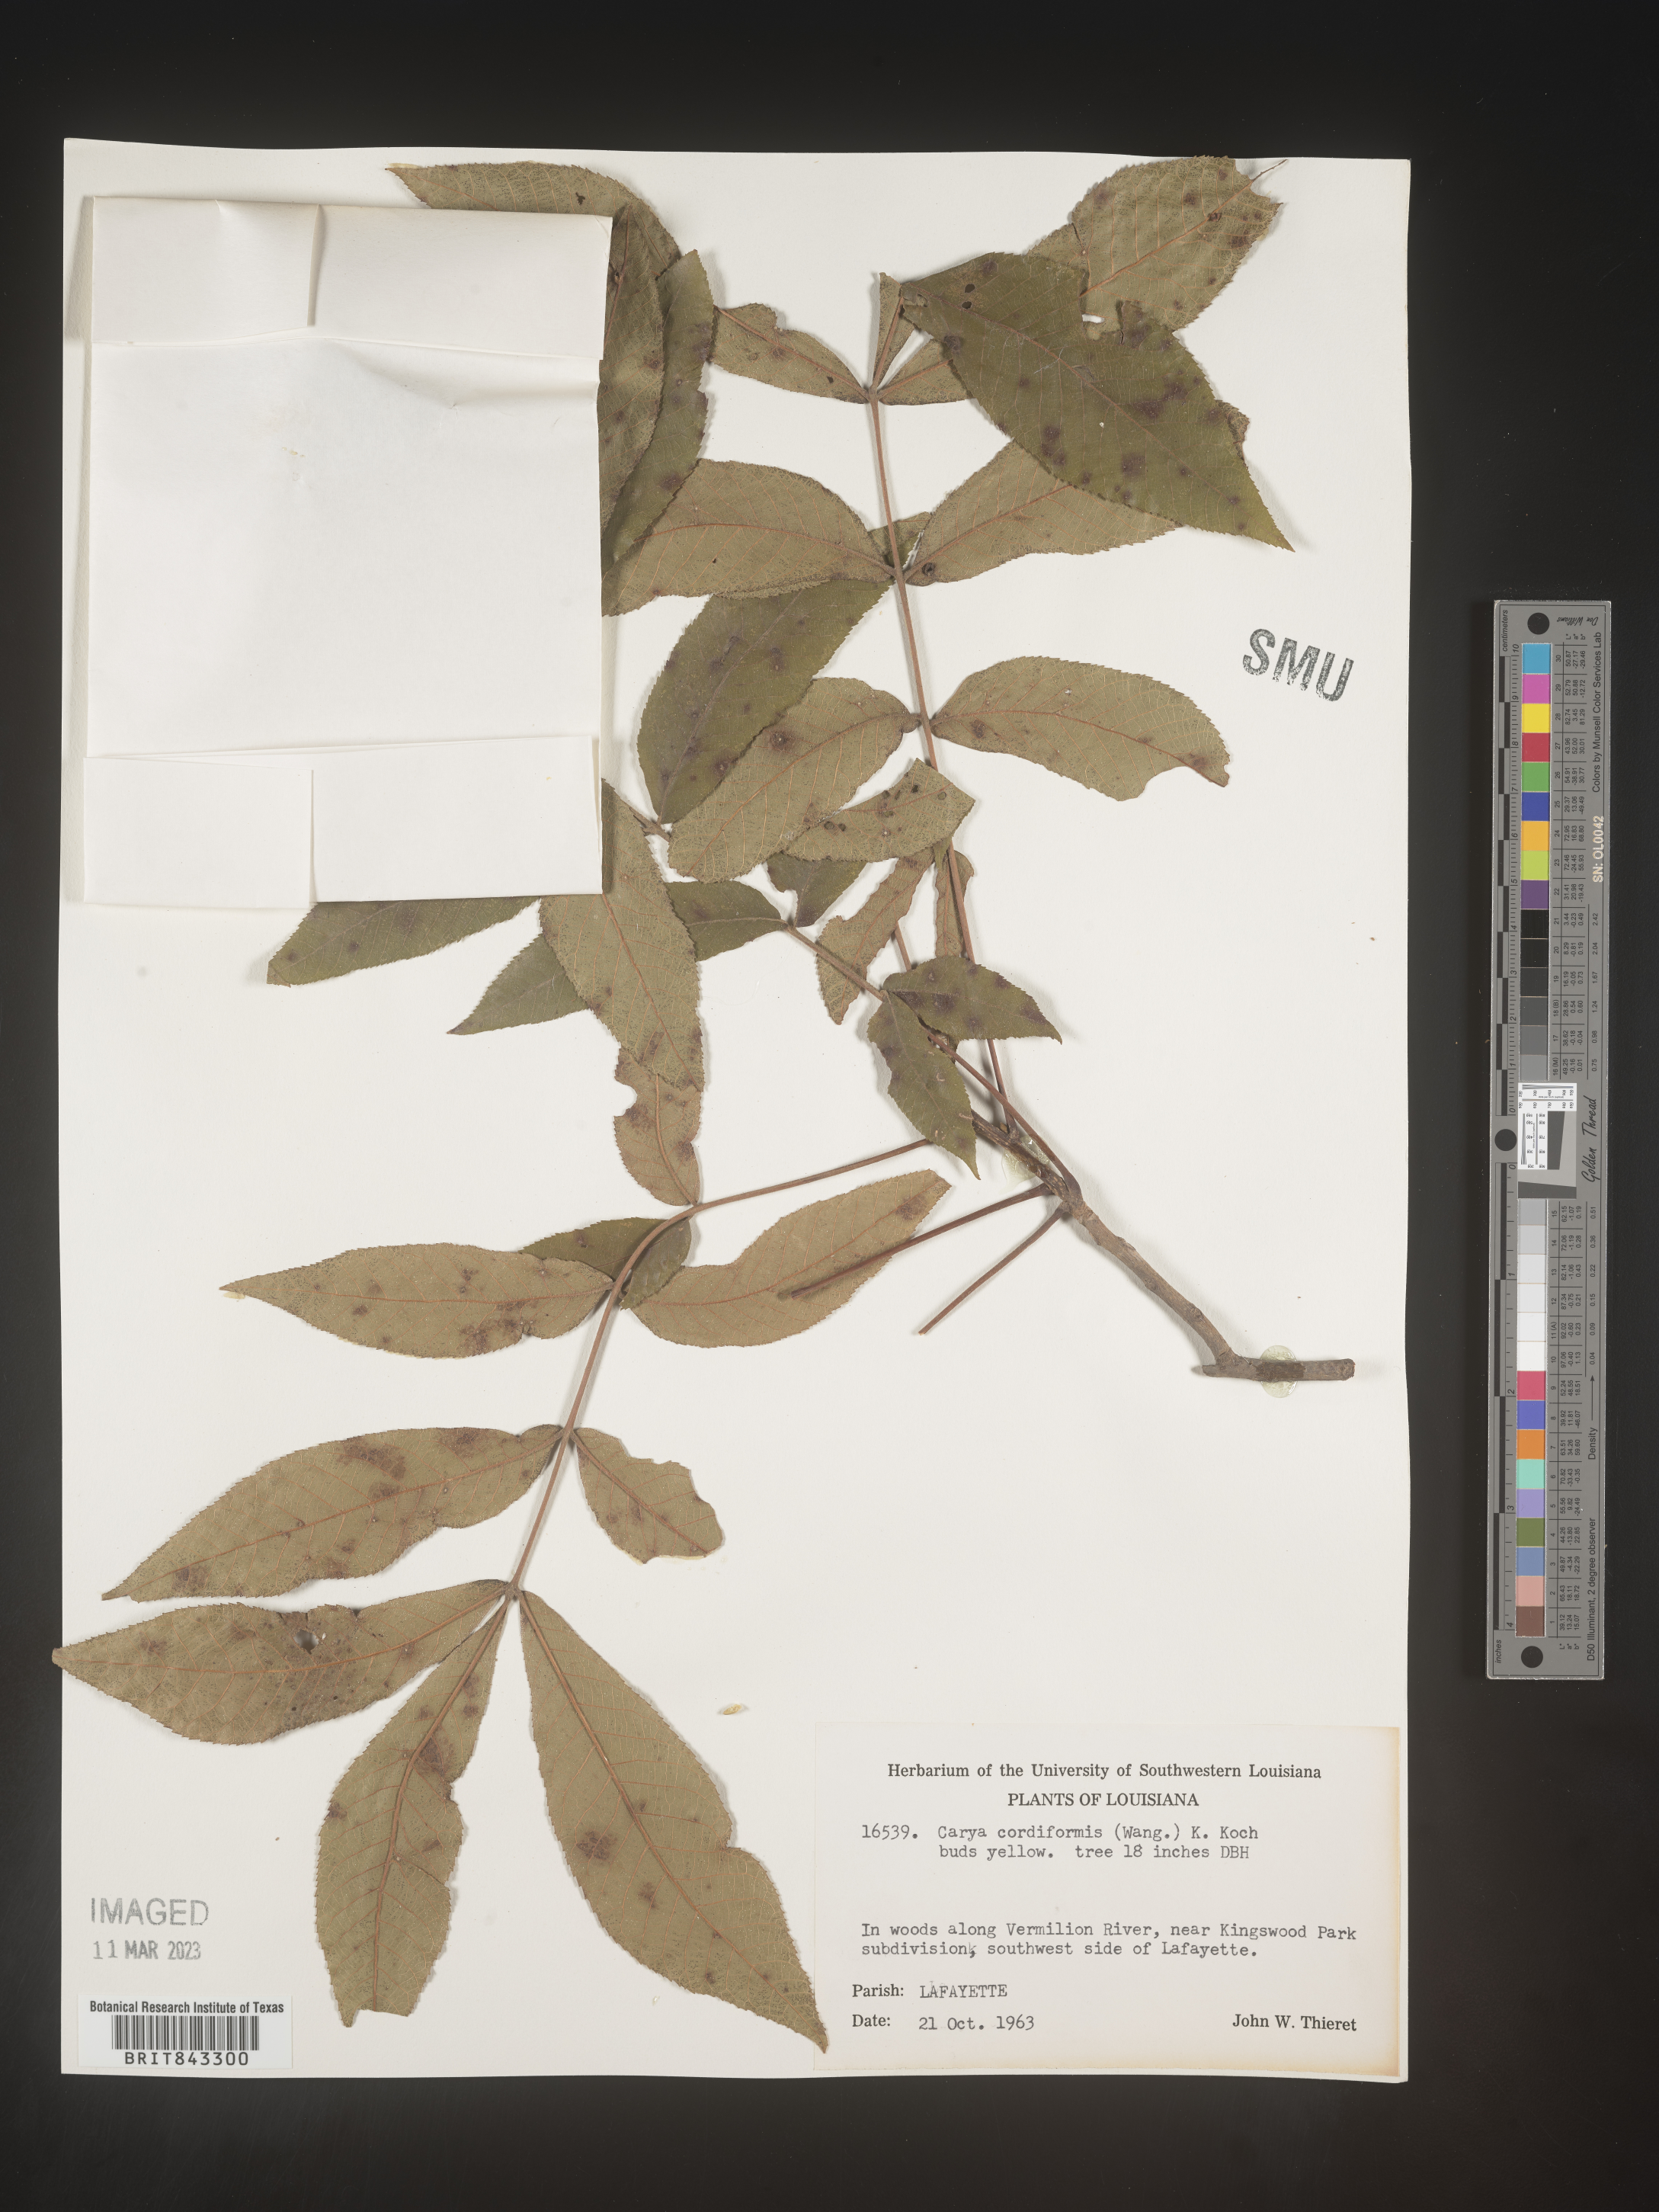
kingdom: Plantae
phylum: Tracheophyta
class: Magnoliopsida
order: Fagales
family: Juglandaceae
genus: Carya
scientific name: Carya cordiformis
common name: Bitternut hickory
